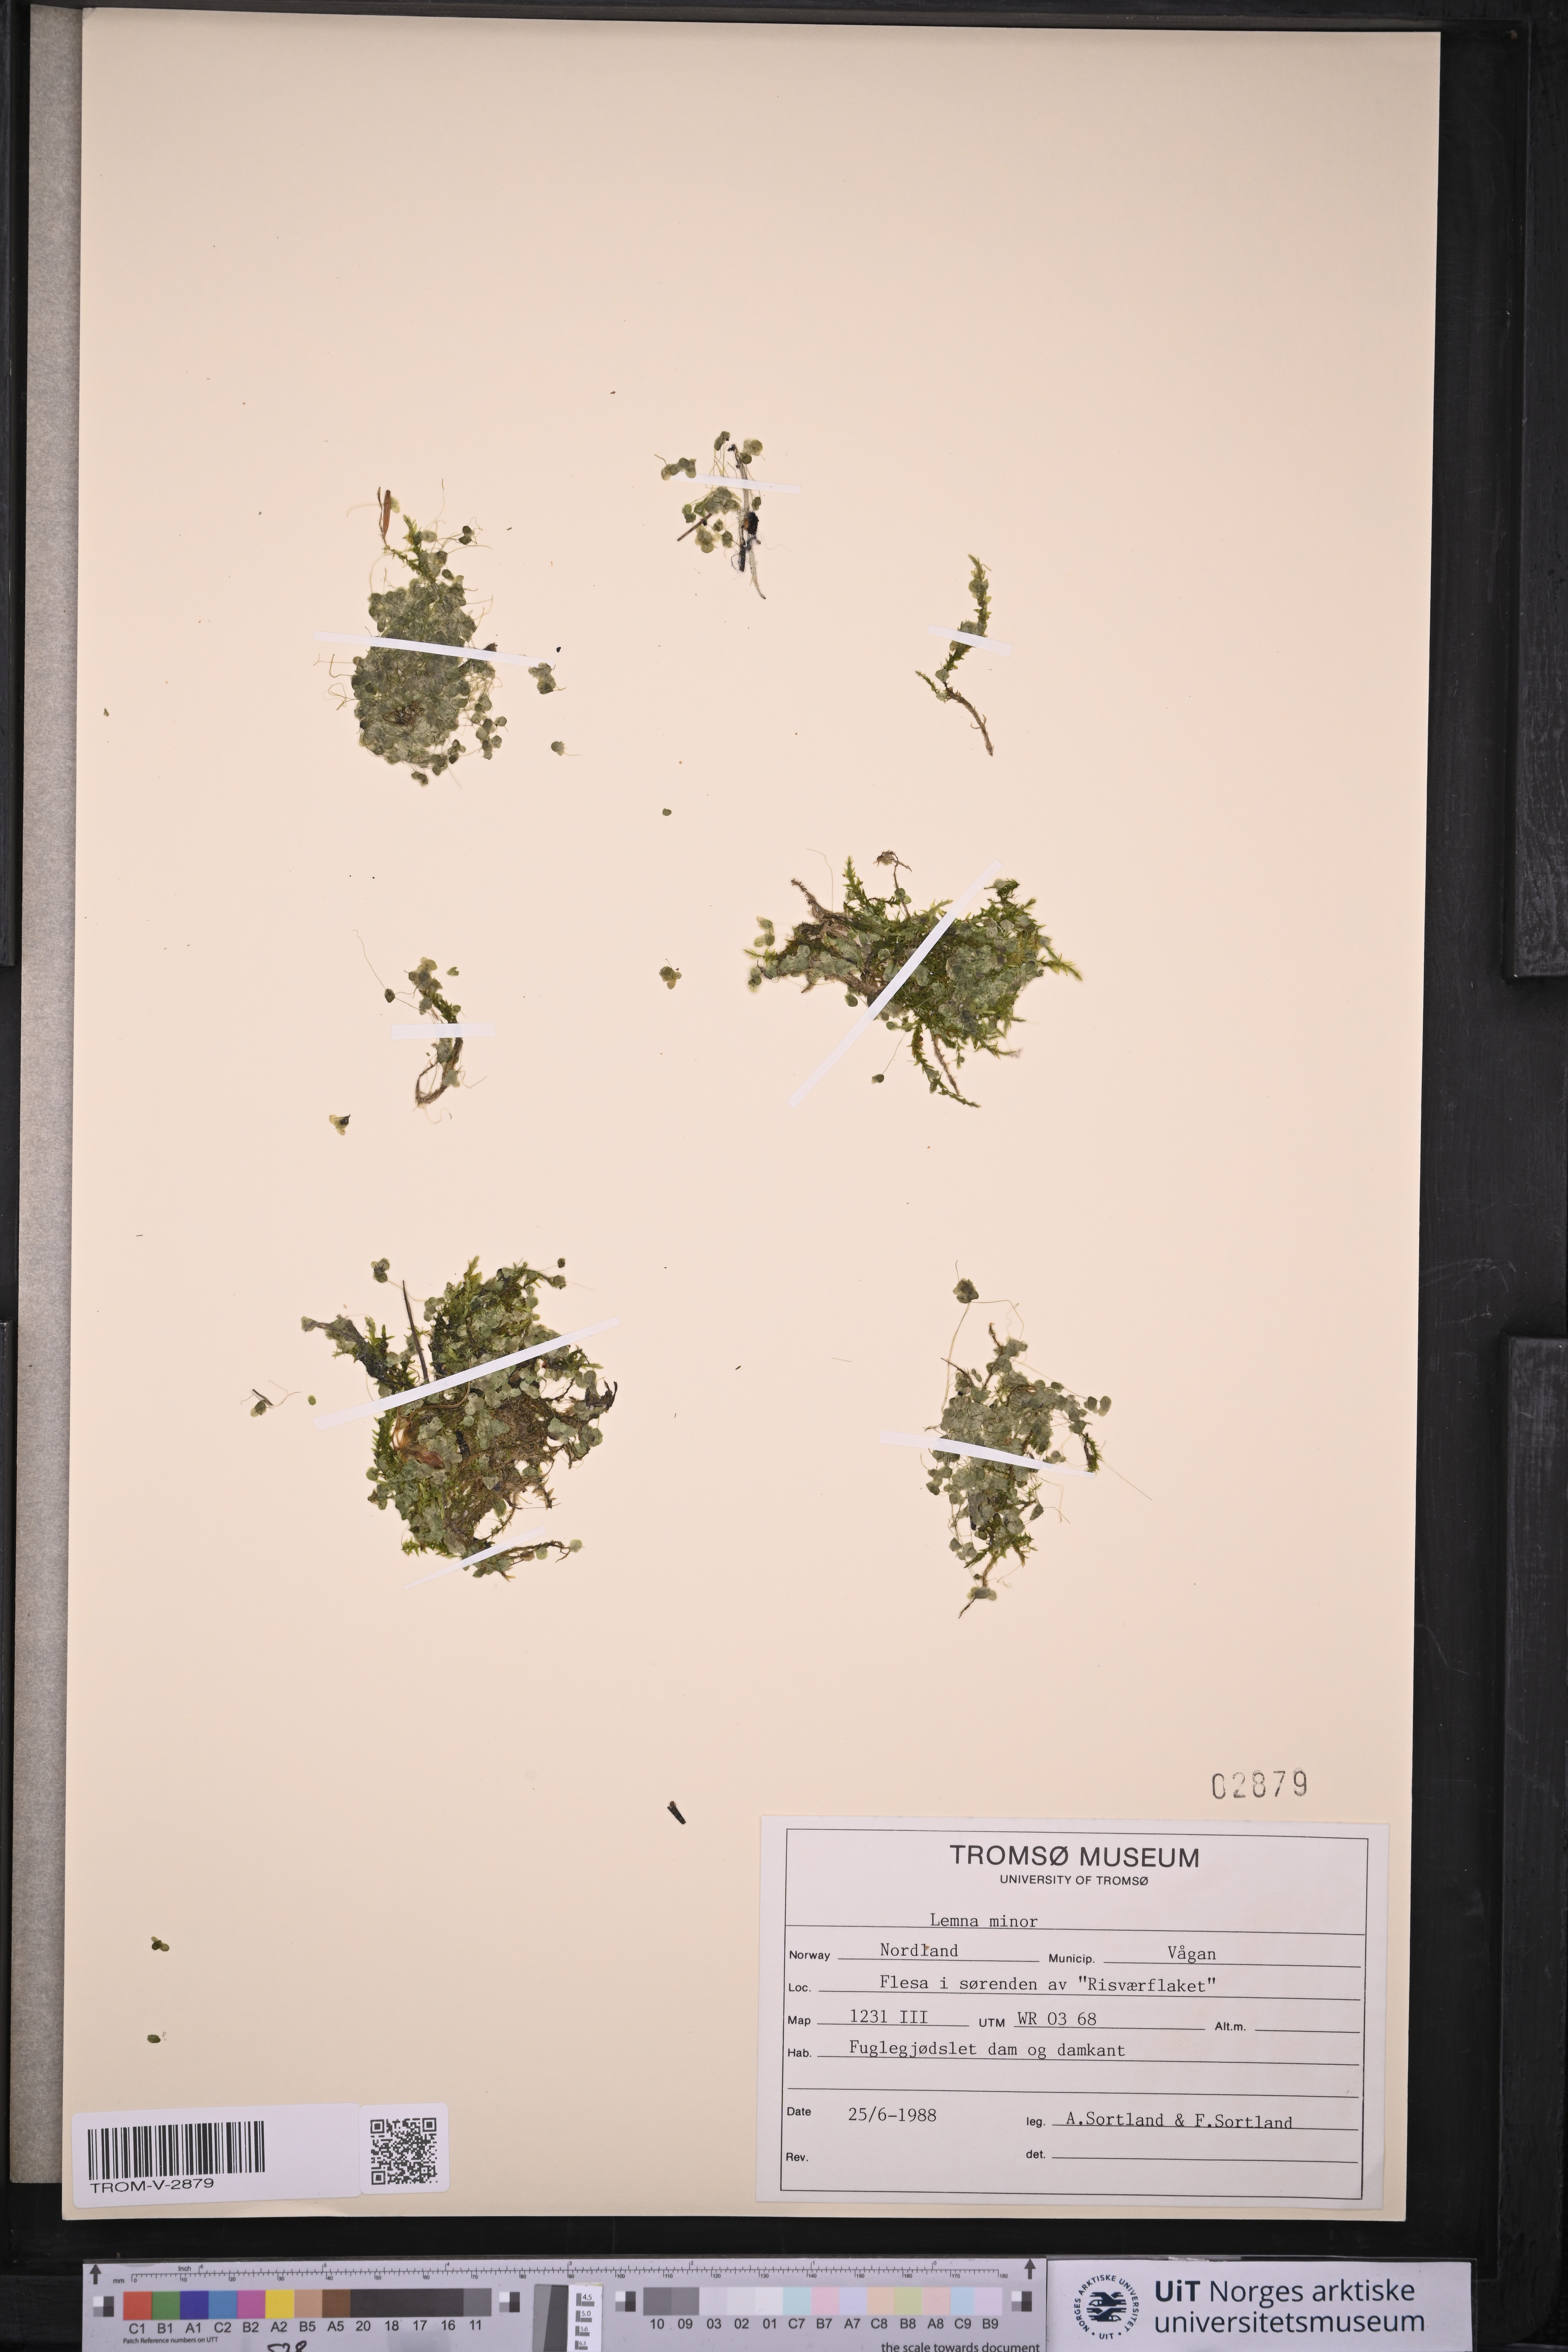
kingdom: Plantae
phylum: Tracheophyta
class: Liliopsida
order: Alismatales
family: Araceae
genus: Lemna
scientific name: Lemna minor
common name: Common duckweed
